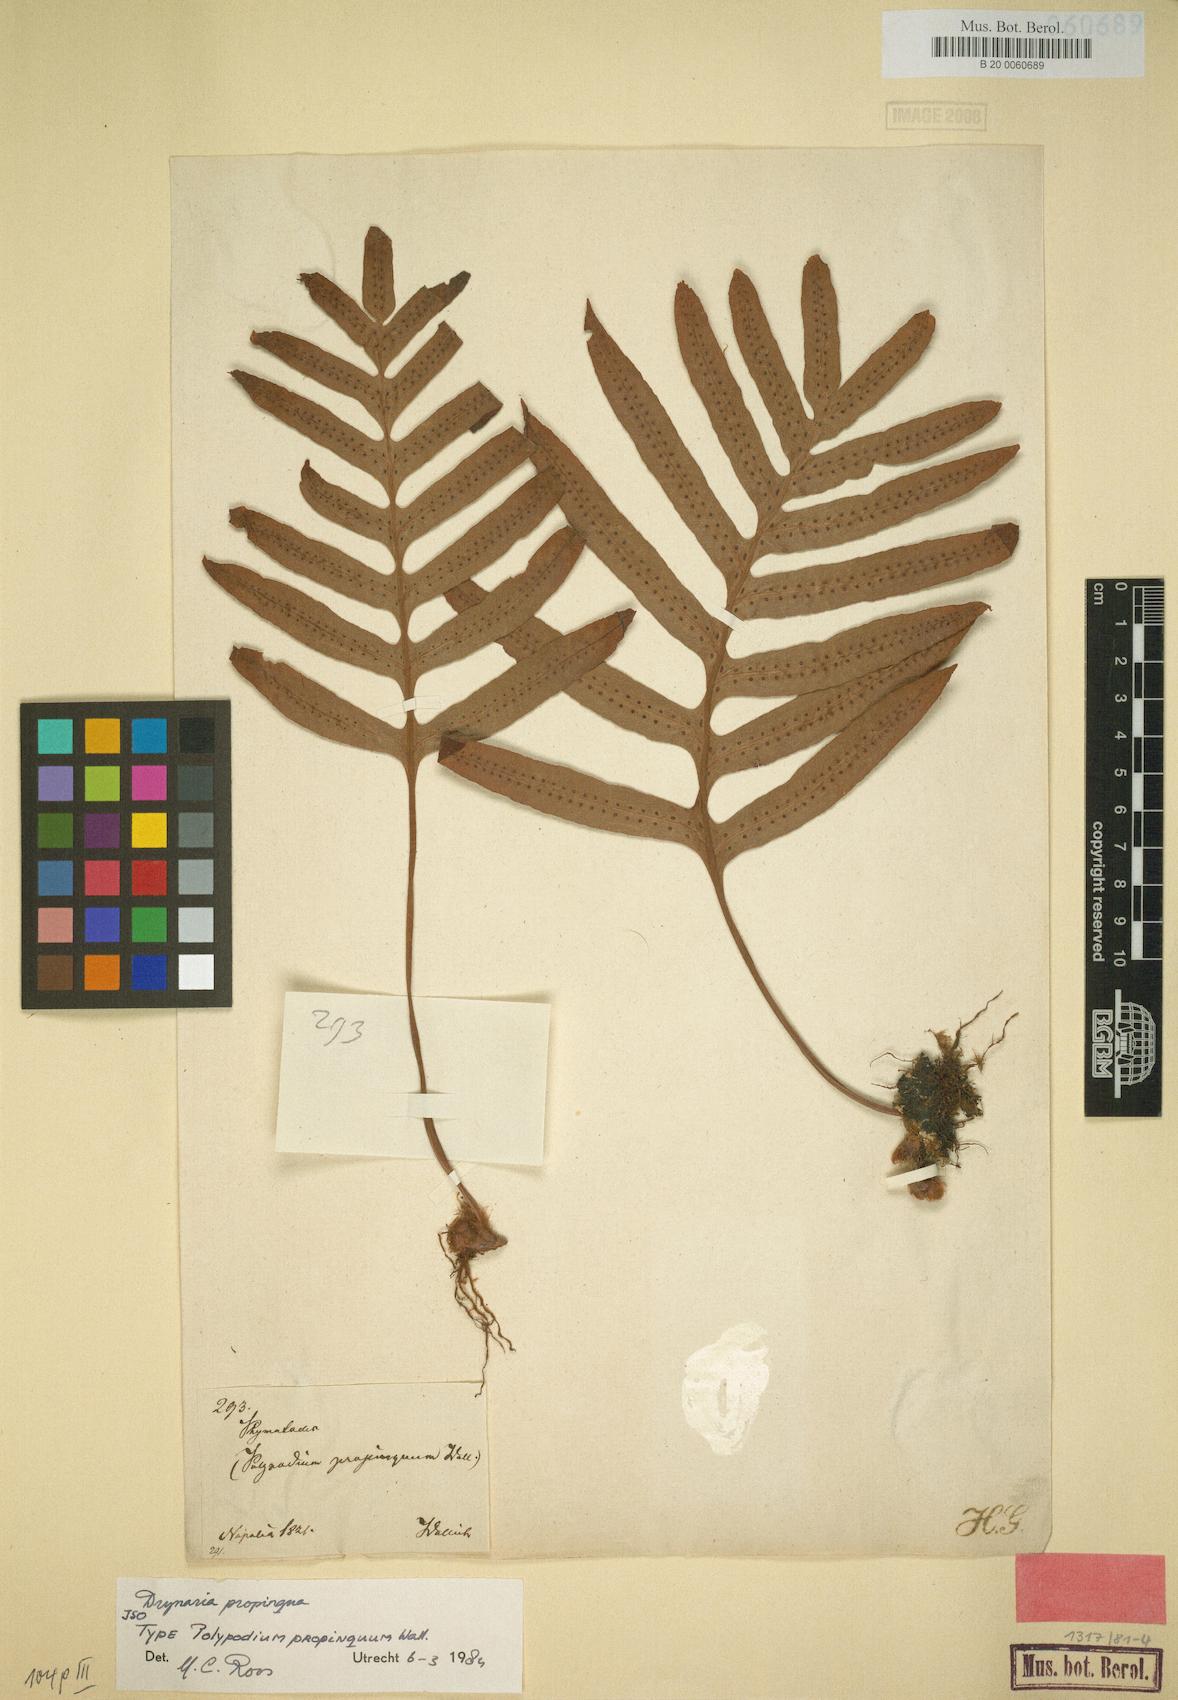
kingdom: Plantae
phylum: Tracheophyta
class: Polypodiopsida
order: Polypodiales
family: Polypodiaceae
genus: Drynaria
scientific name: Drynaria propinqua
